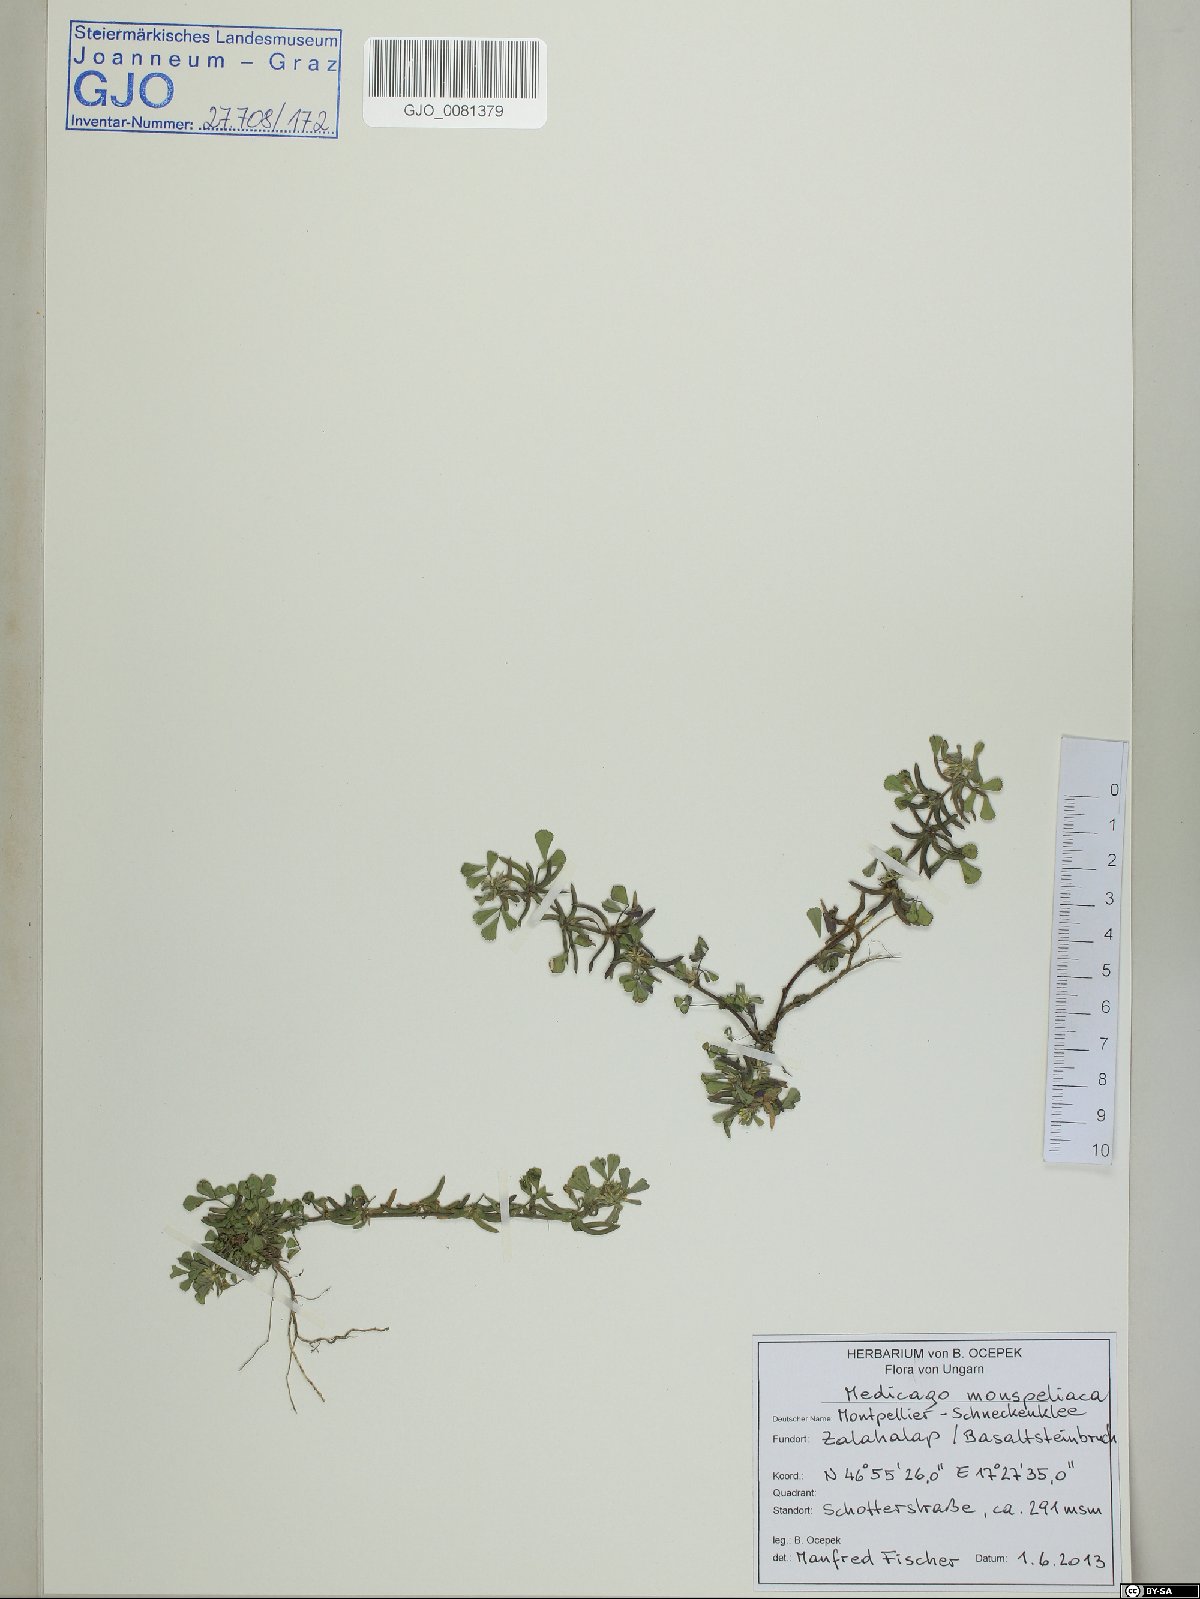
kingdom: Plantae
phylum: Tracheophyta
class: Magnoliopsida
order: Fabales
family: Fabaceae
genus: Medicago
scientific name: Medicago monspeliaca
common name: Hairy medick
